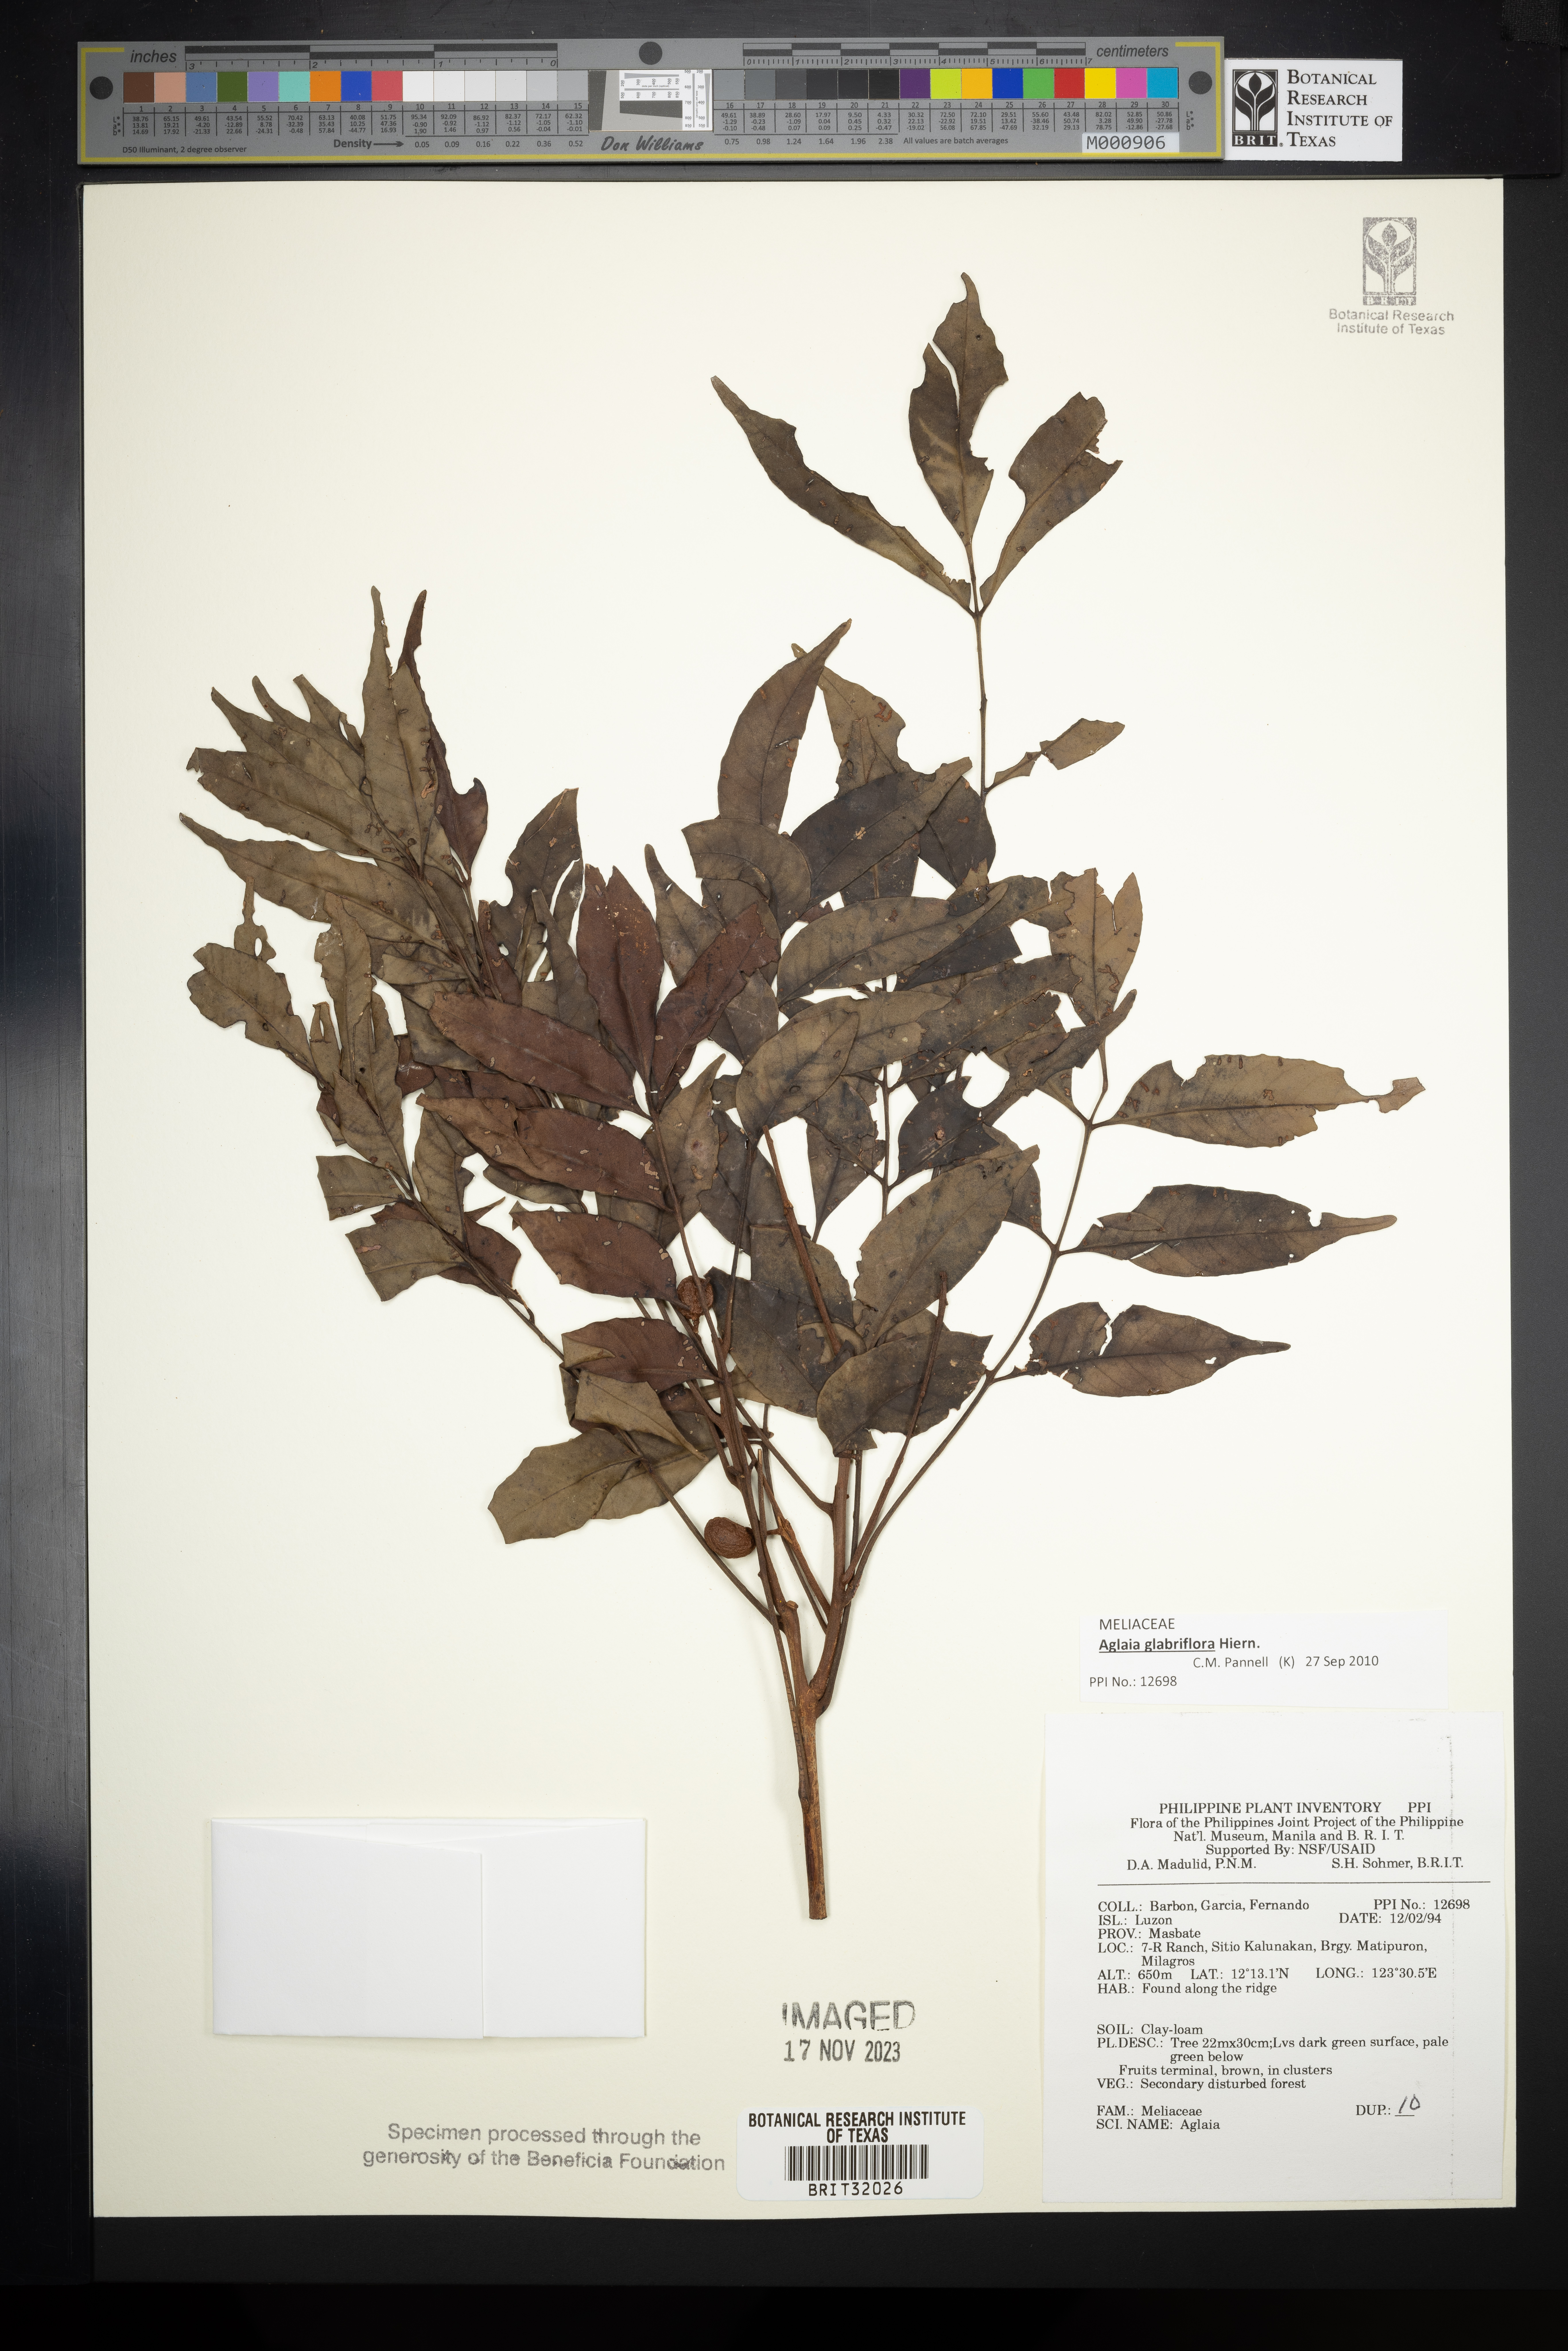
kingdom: Plantae
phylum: Tracheophyta
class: Magnoliopsida
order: Sapindales
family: Meliaceae
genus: Aglaia
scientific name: Aglaia
